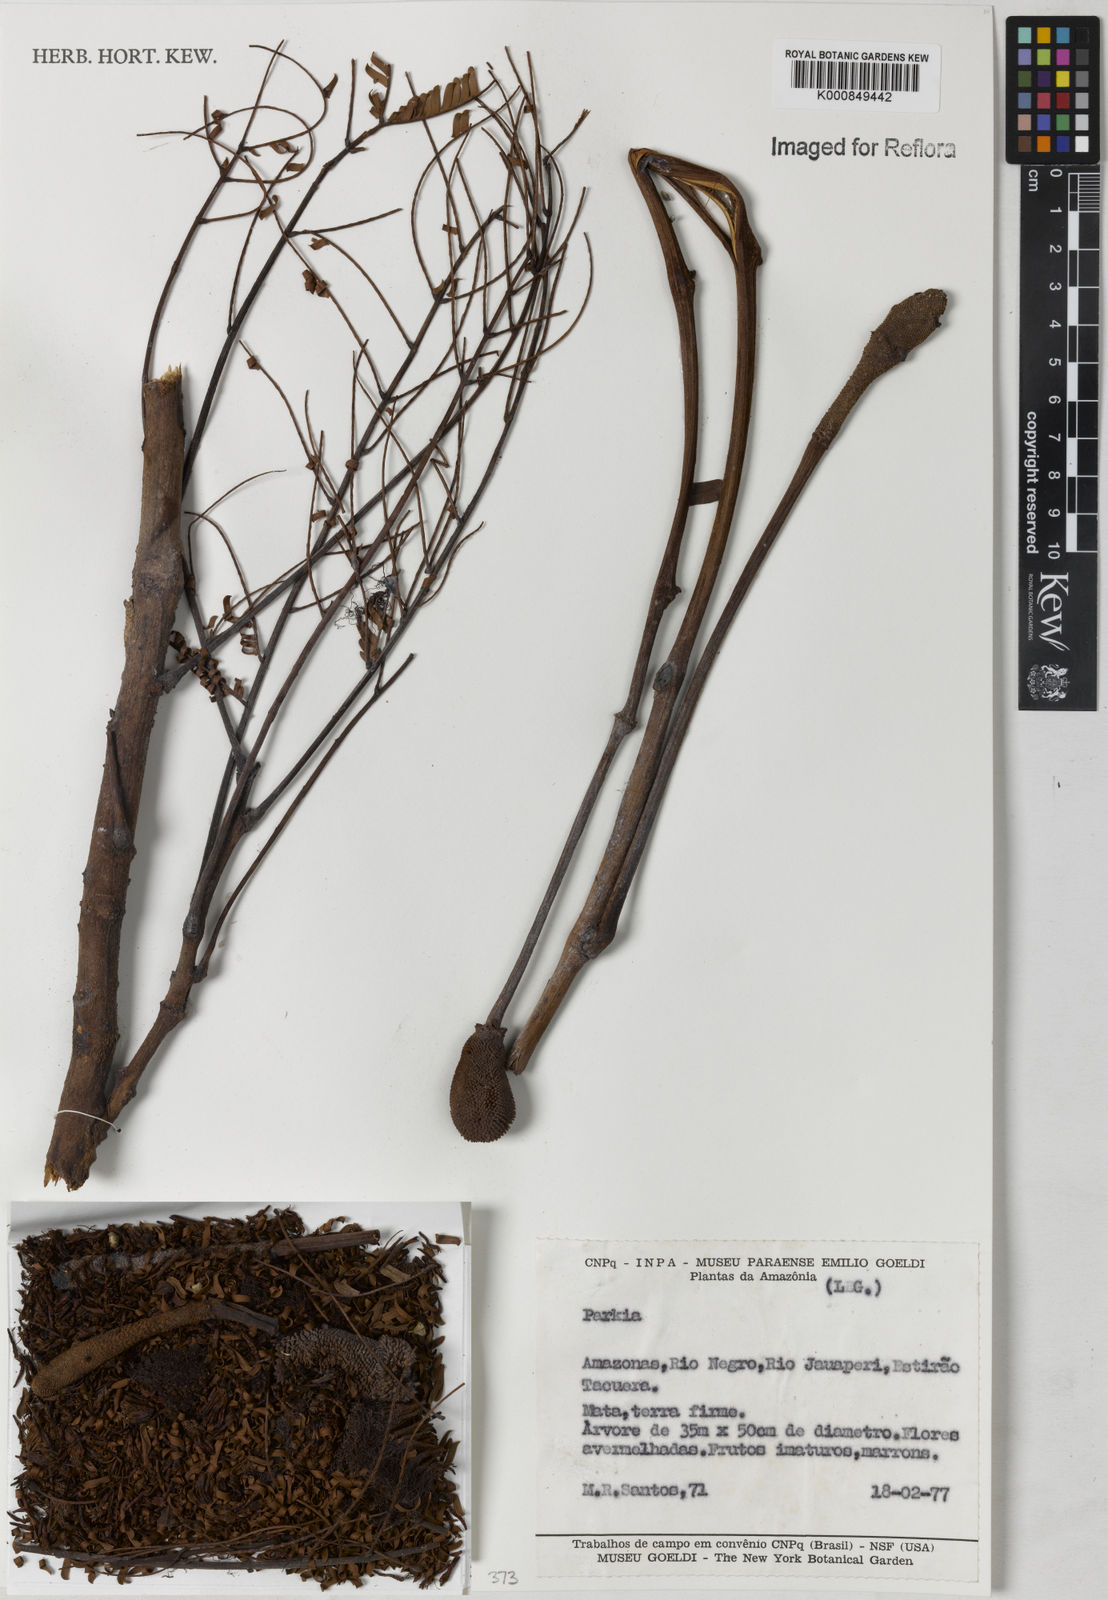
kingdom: Plantae
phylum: Tracheophyta
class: Magnoliopsida
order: Fabales
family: Fabaceae
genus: Parkia
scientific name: Parkia
